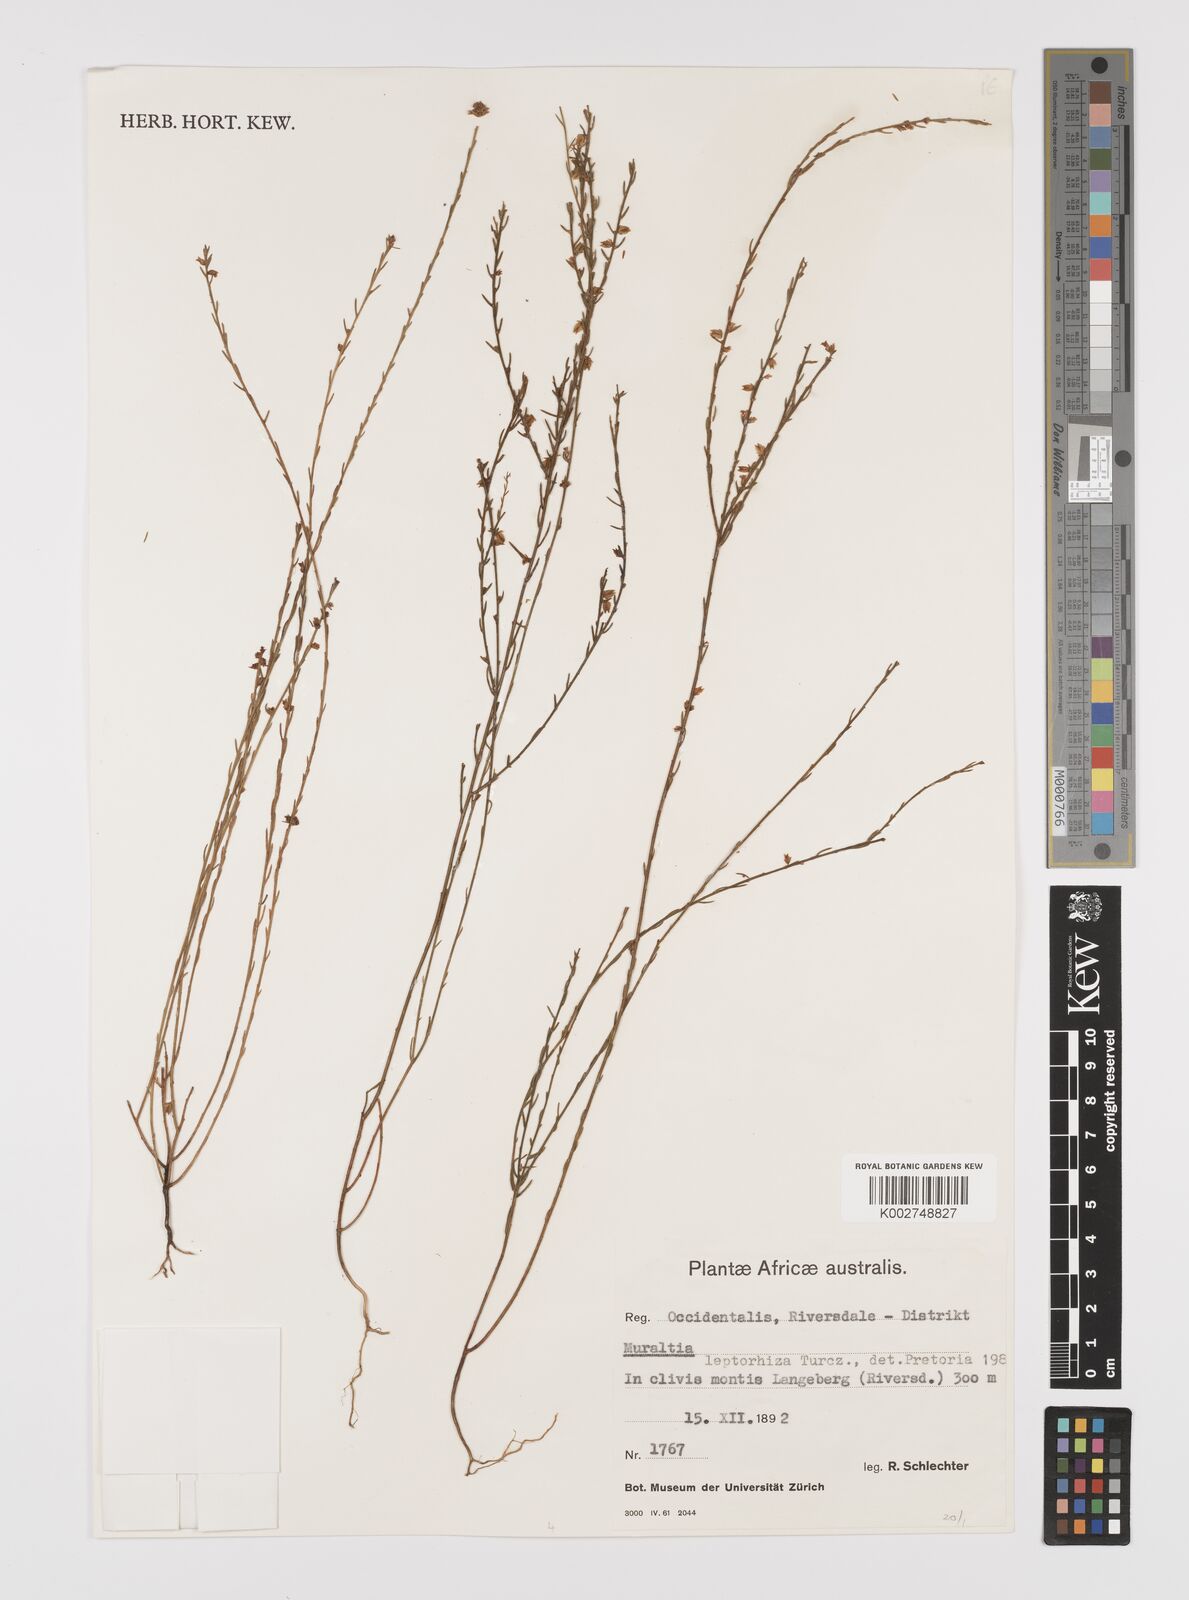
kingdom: Plantae
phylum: Tracheophyta
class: Magnoliopsida
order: Fabales
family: Polygalaceae
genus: Muraltia
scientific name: Muraltia leptorhiza
